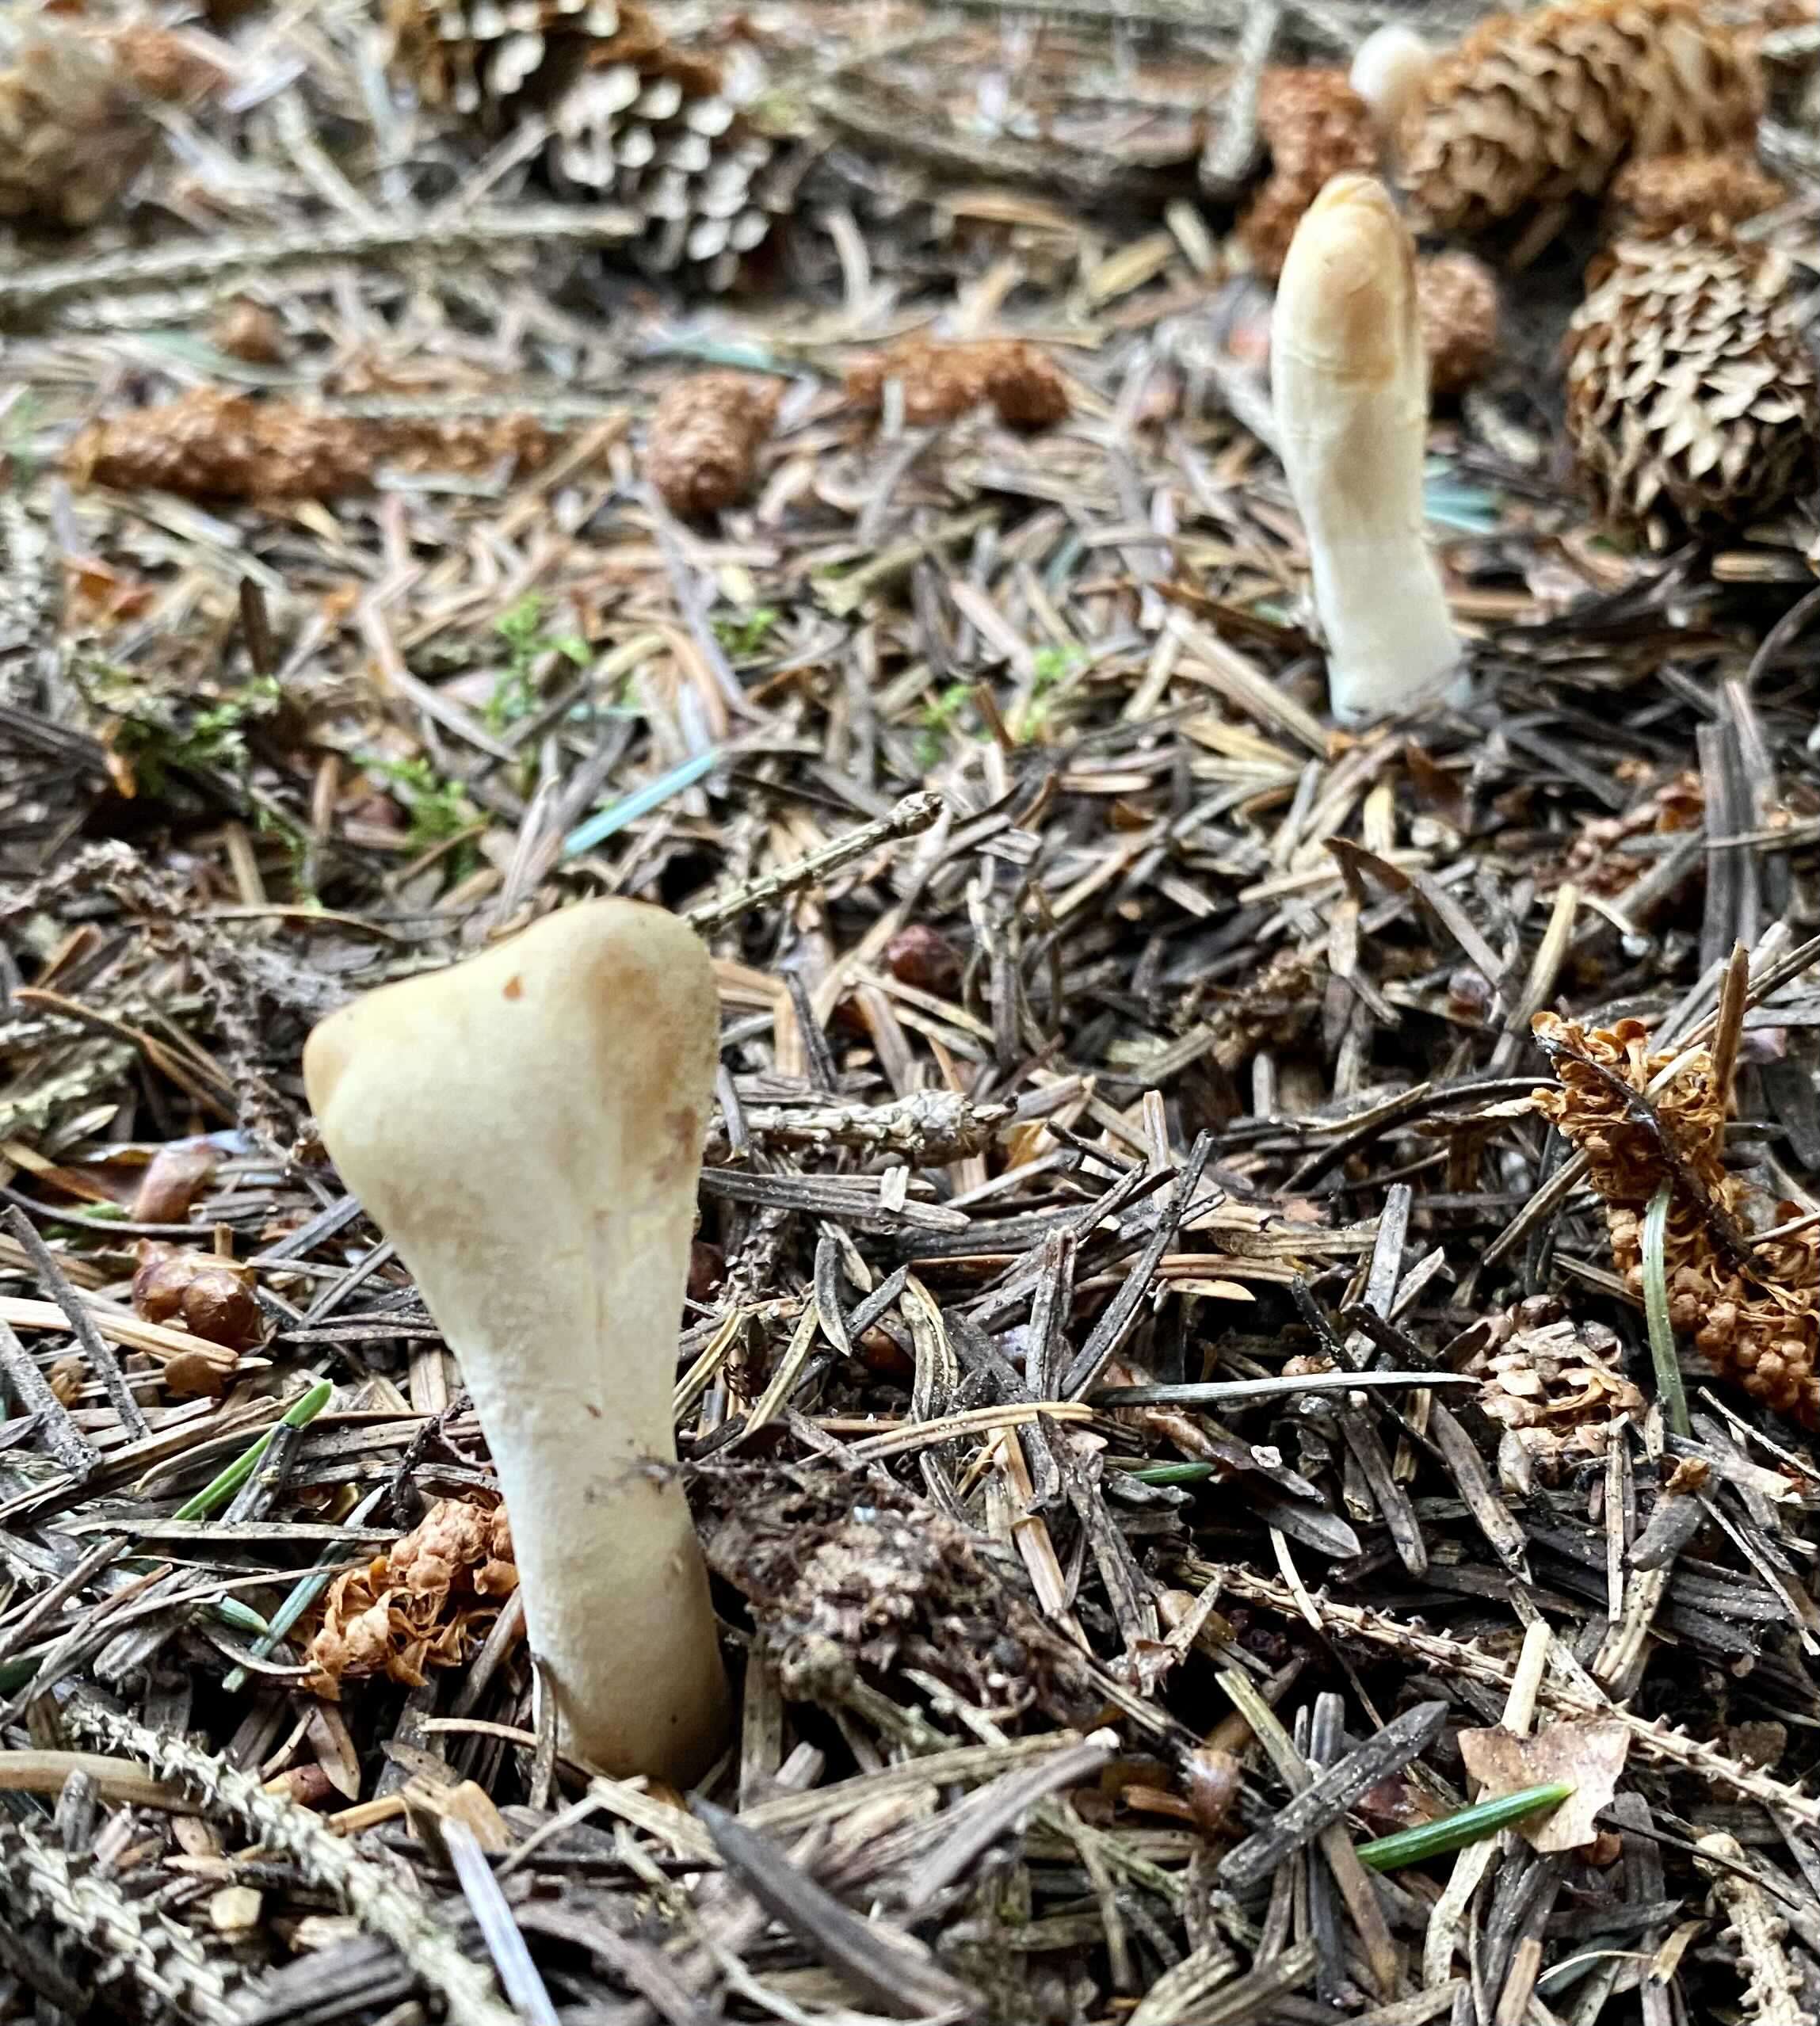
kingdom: Fungi
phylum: Ascomycota
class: Sordariomycetes
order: Hypocreales
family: Hypocreaceae
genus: Trichoderma
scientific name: Trichoderma leucopus
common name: lysstokket kødkerne
